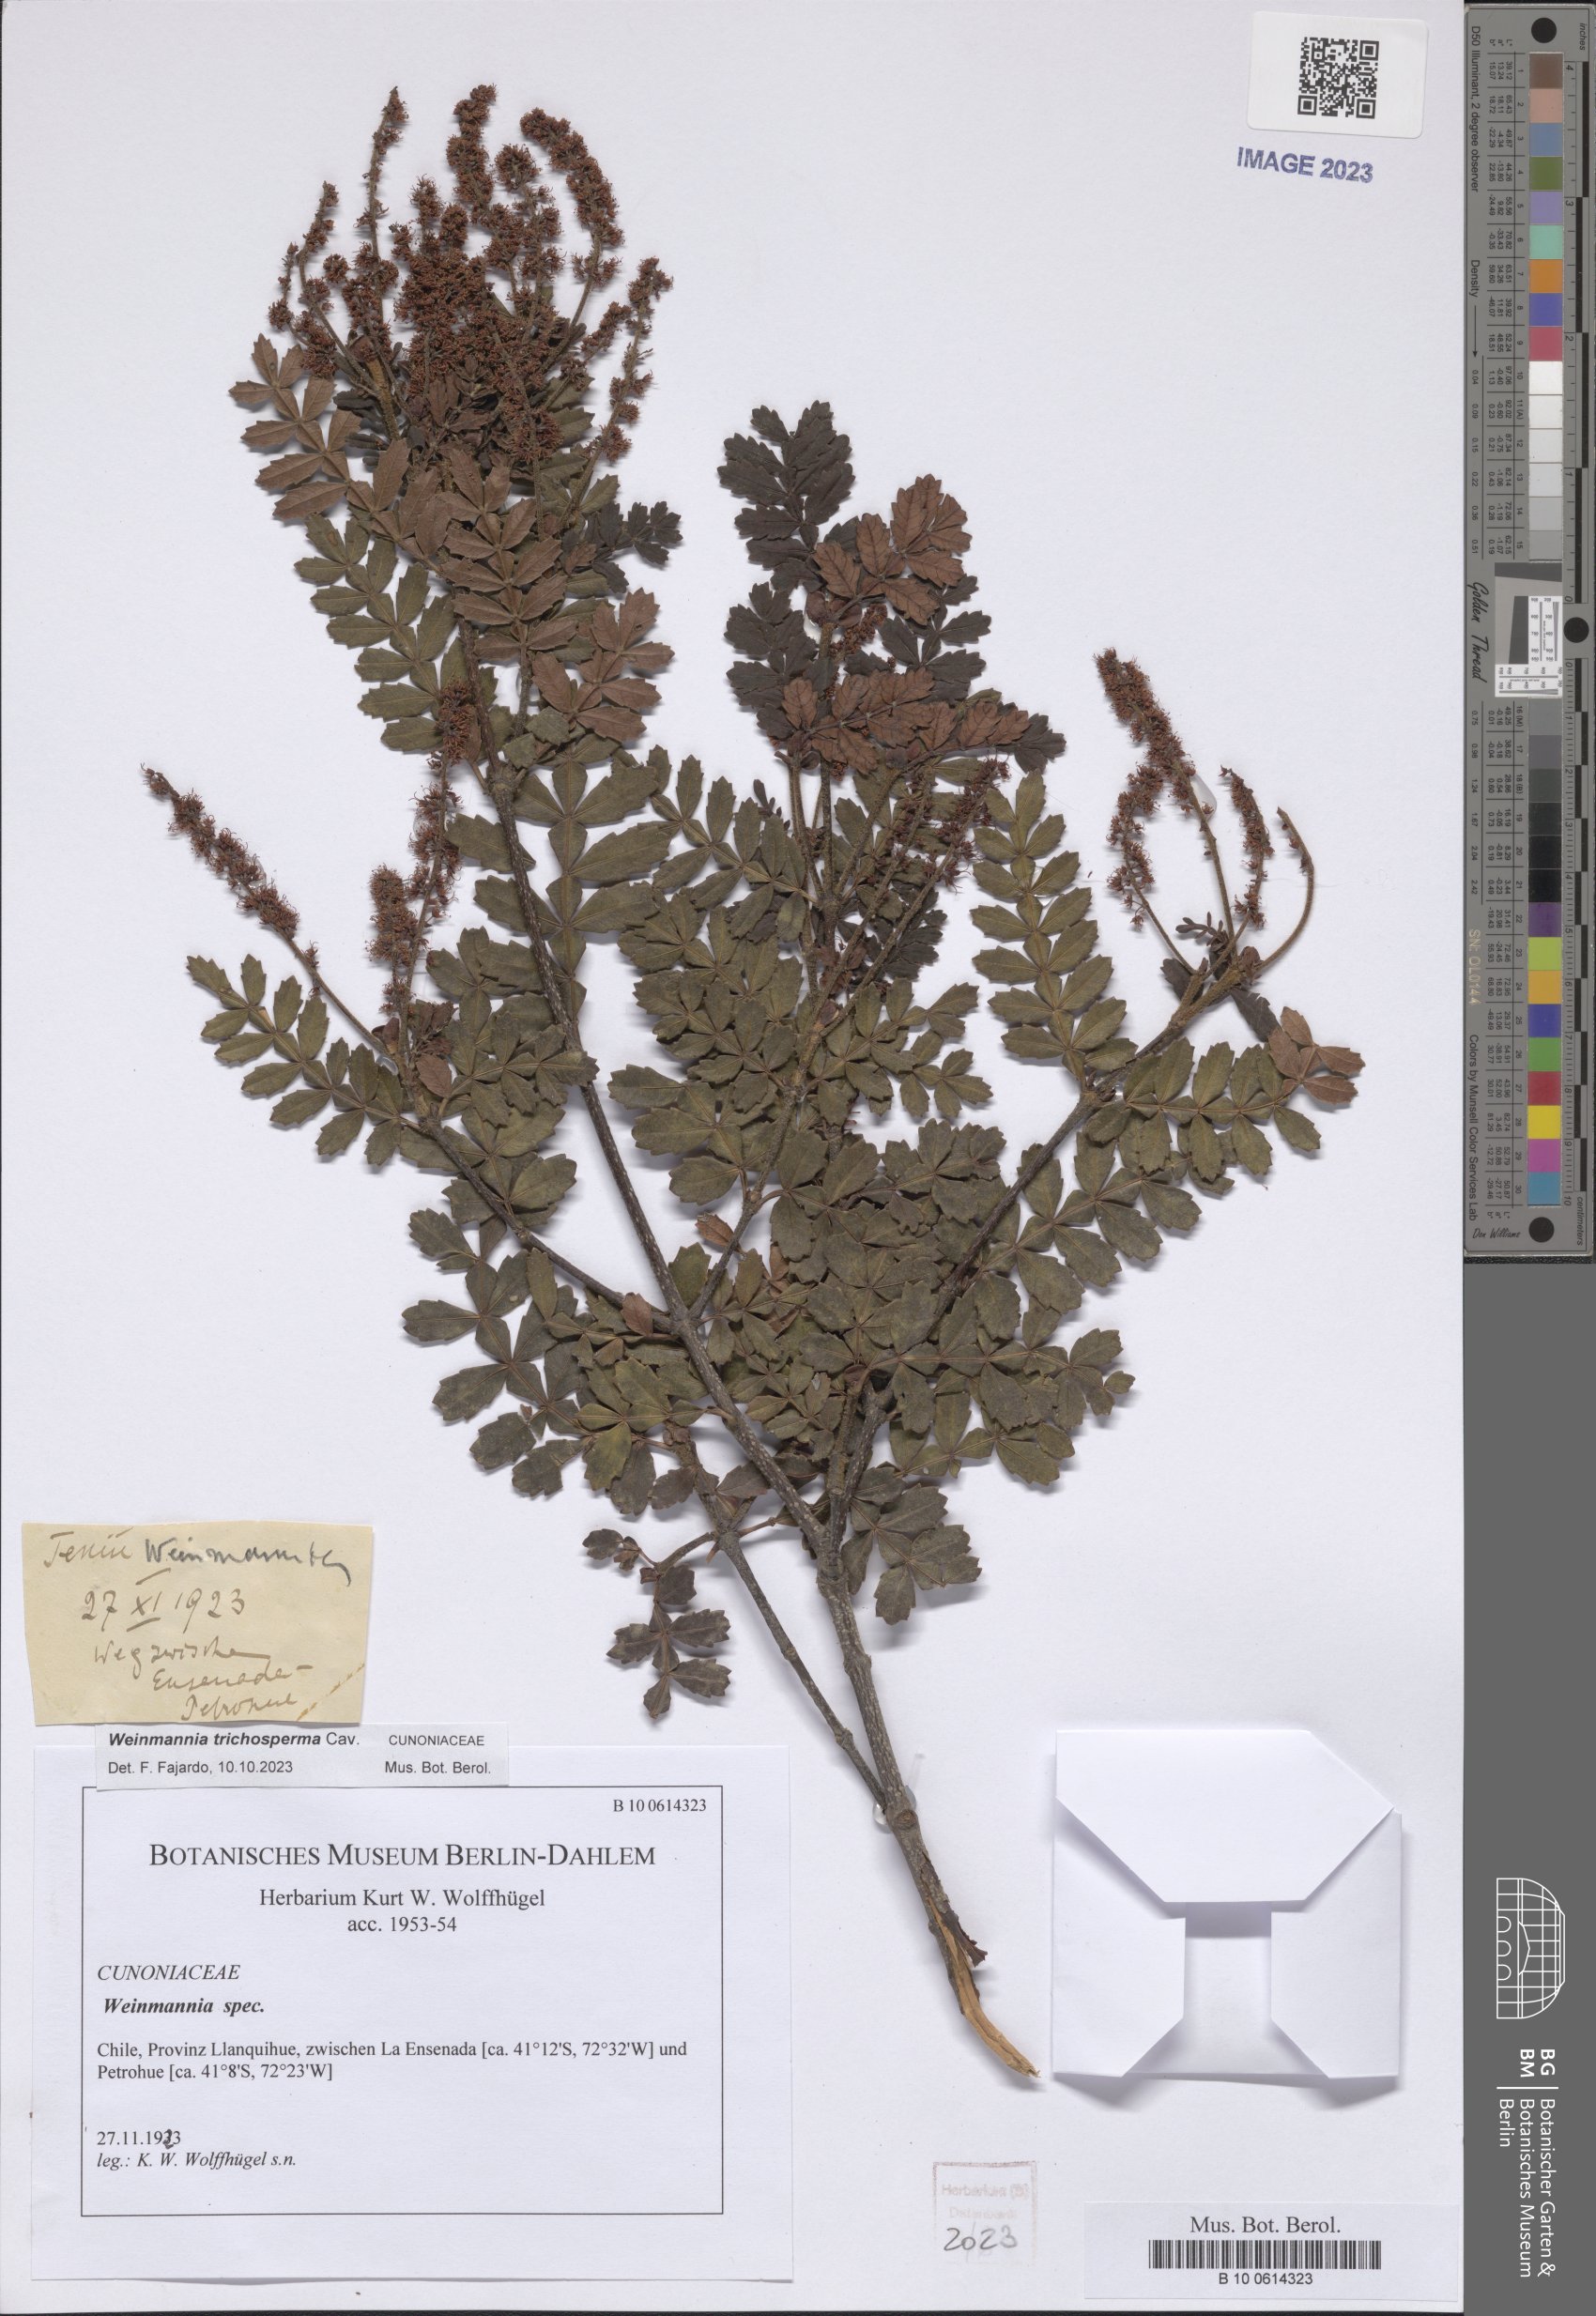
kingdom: Plantae
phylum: Tracheophyta
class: Magnoliopsida
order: Oxalidales
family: Cunoniaceae
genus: Weinmannia
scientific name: Weinmannia trichosperma
